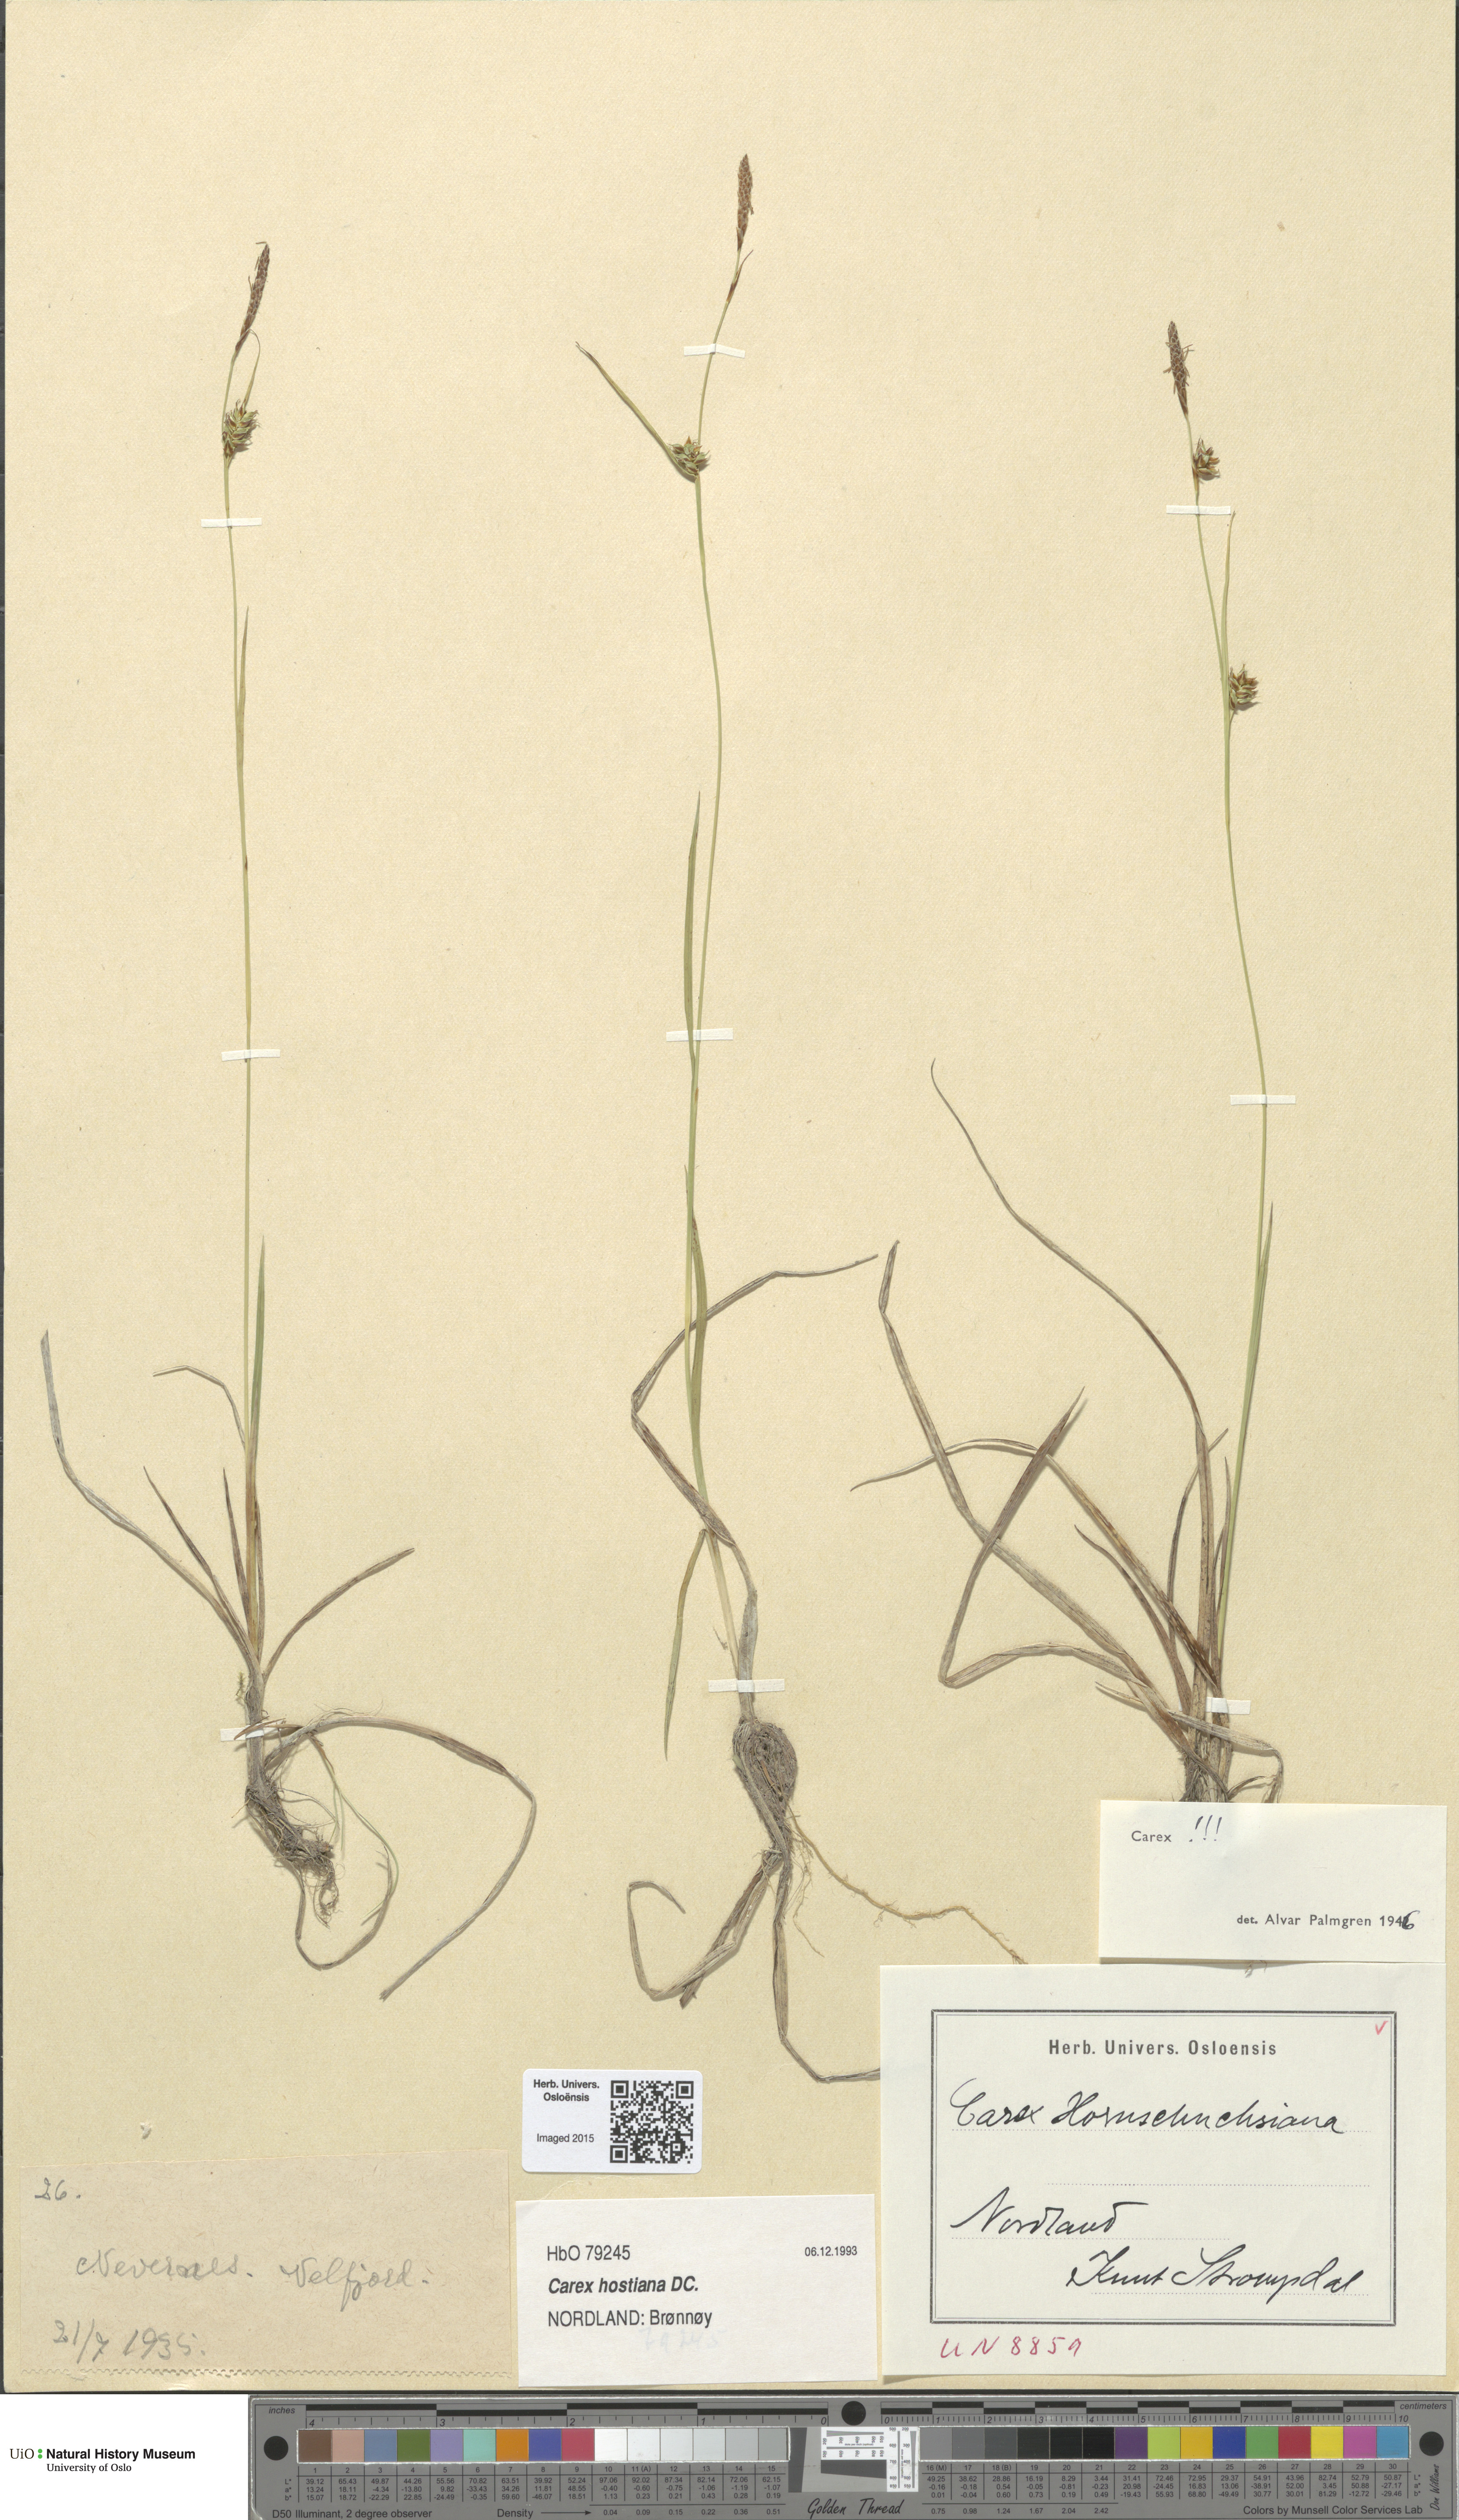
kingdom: Plantae
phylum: Tracheophyta
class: Liliopsida
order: Poales
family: Cyperaceae
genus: Carex
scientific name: Carex hostiana
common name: Tawny sedge
